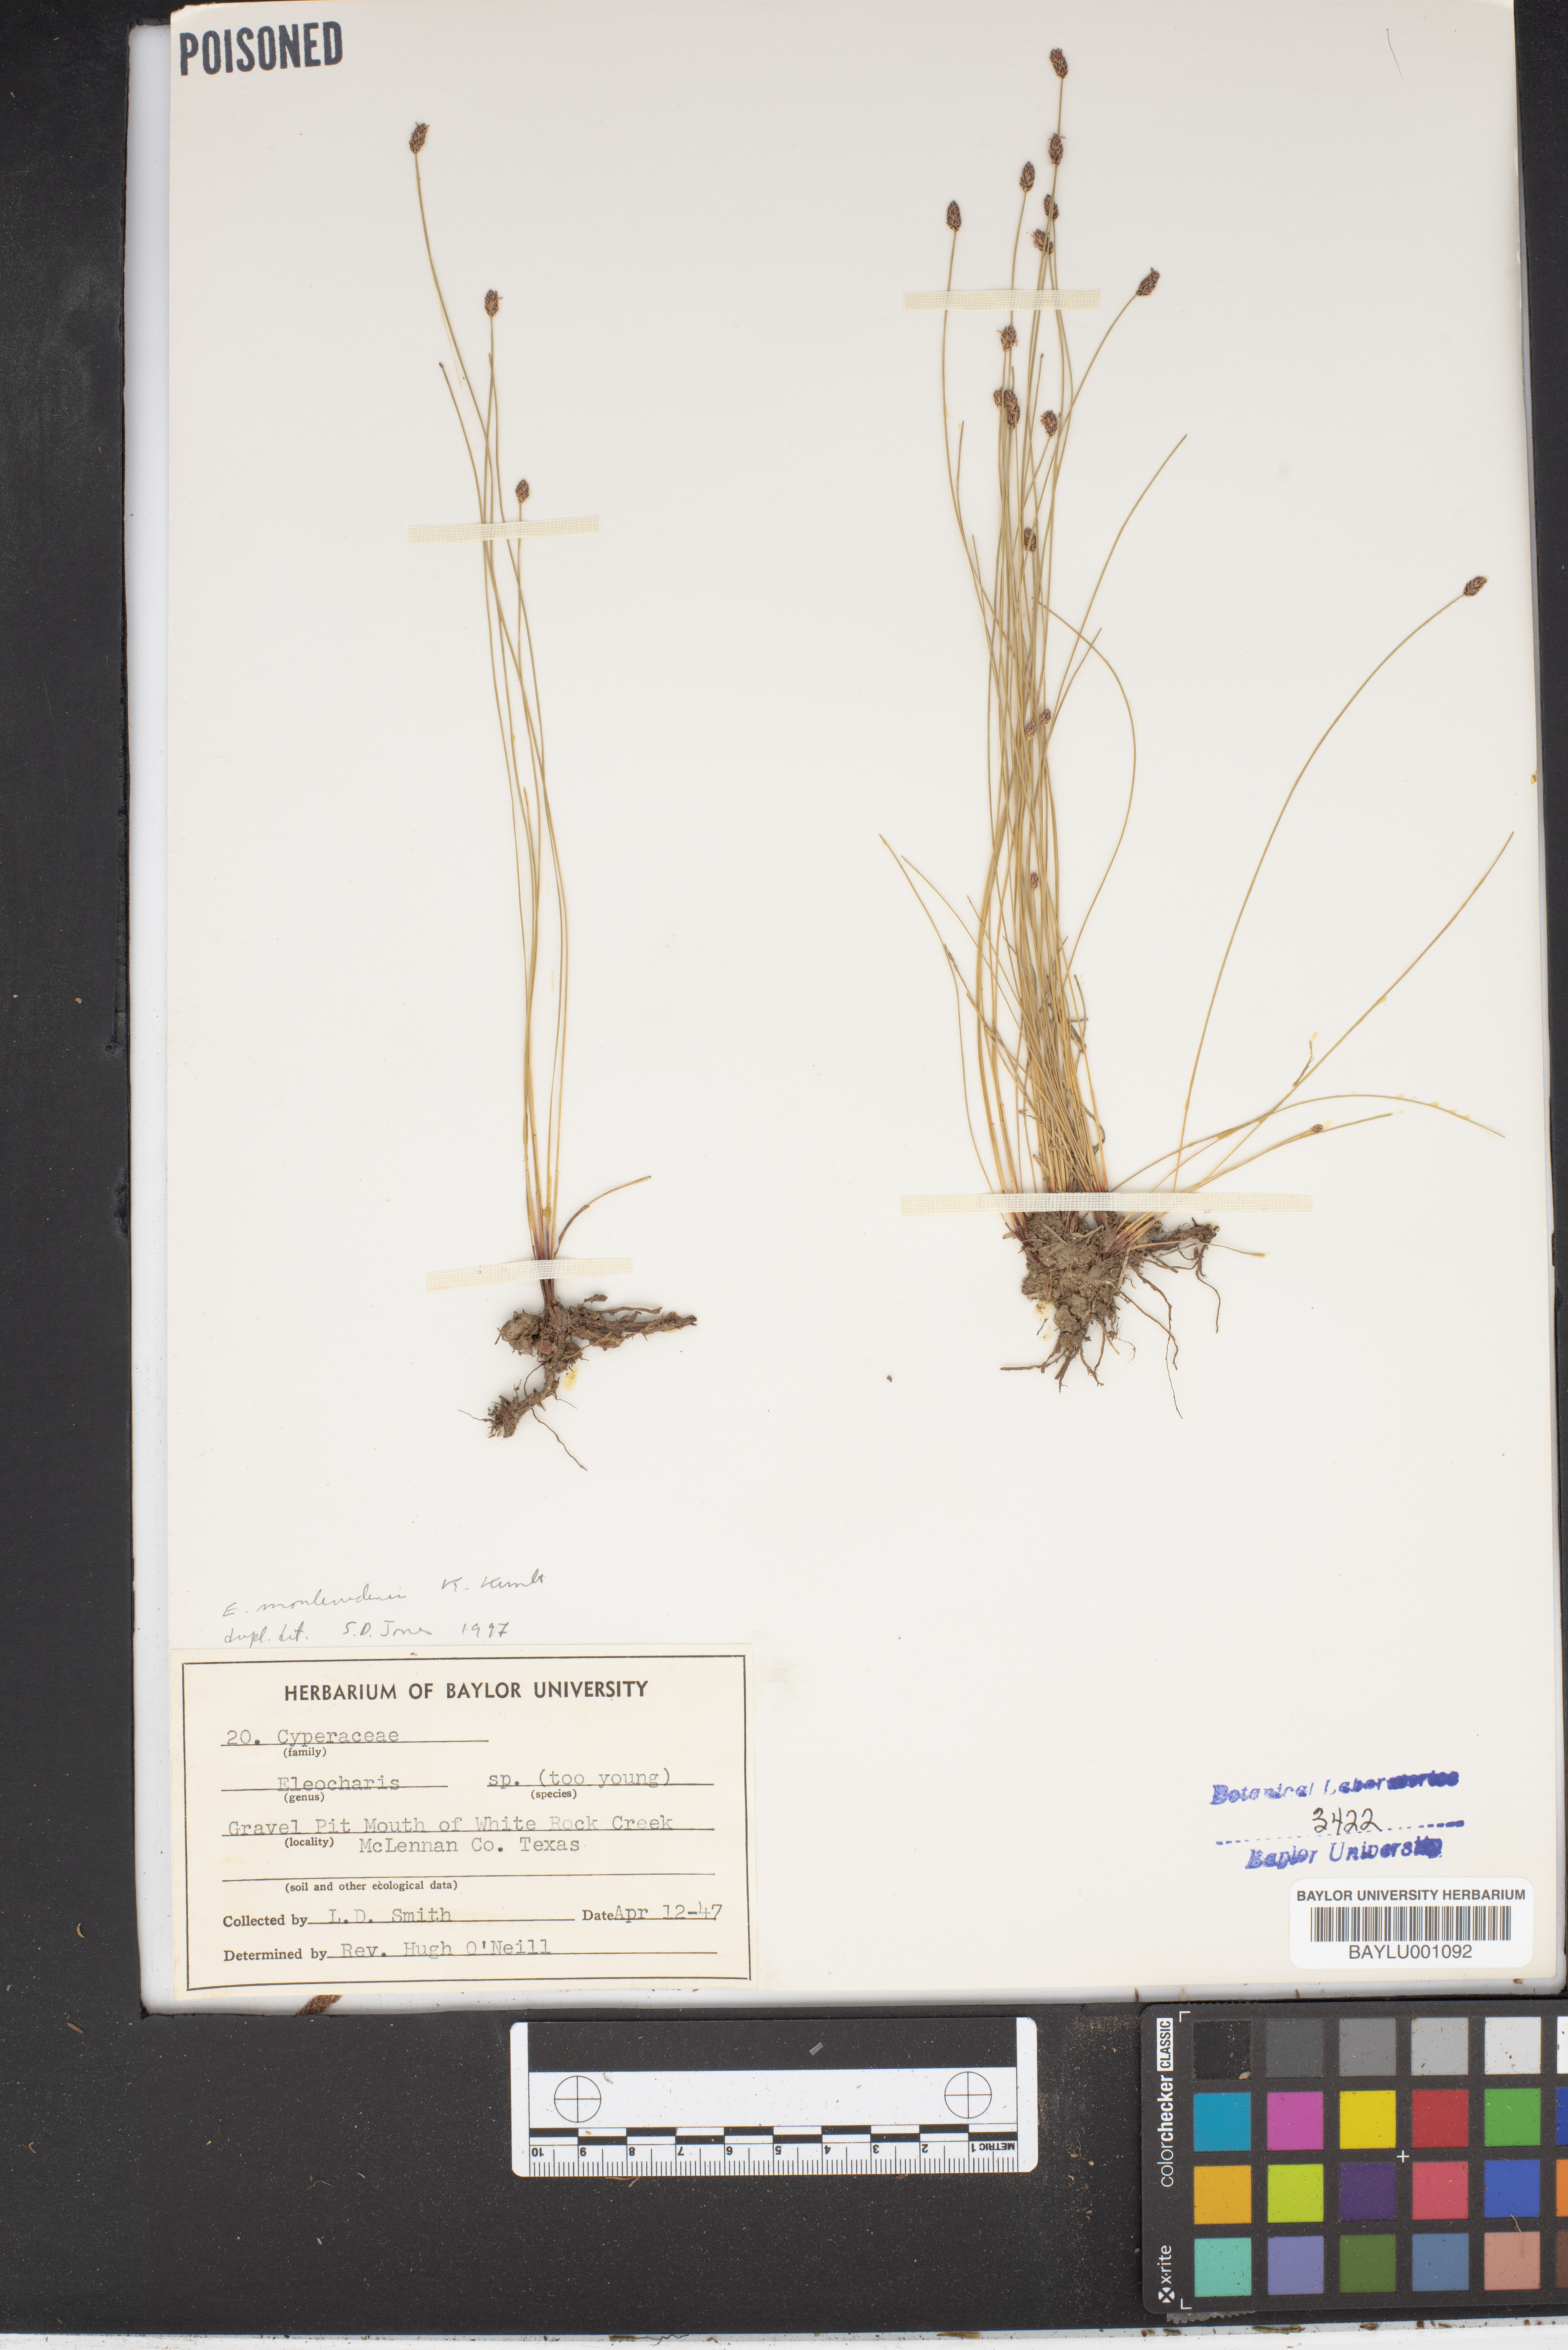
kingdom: Plantae
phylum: Tracheophyta
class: Liliopsida
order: Poales
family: Cyperaceae
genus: Eleocharis
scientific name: Eleocharis montevidensis
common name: Sand spike-rush
